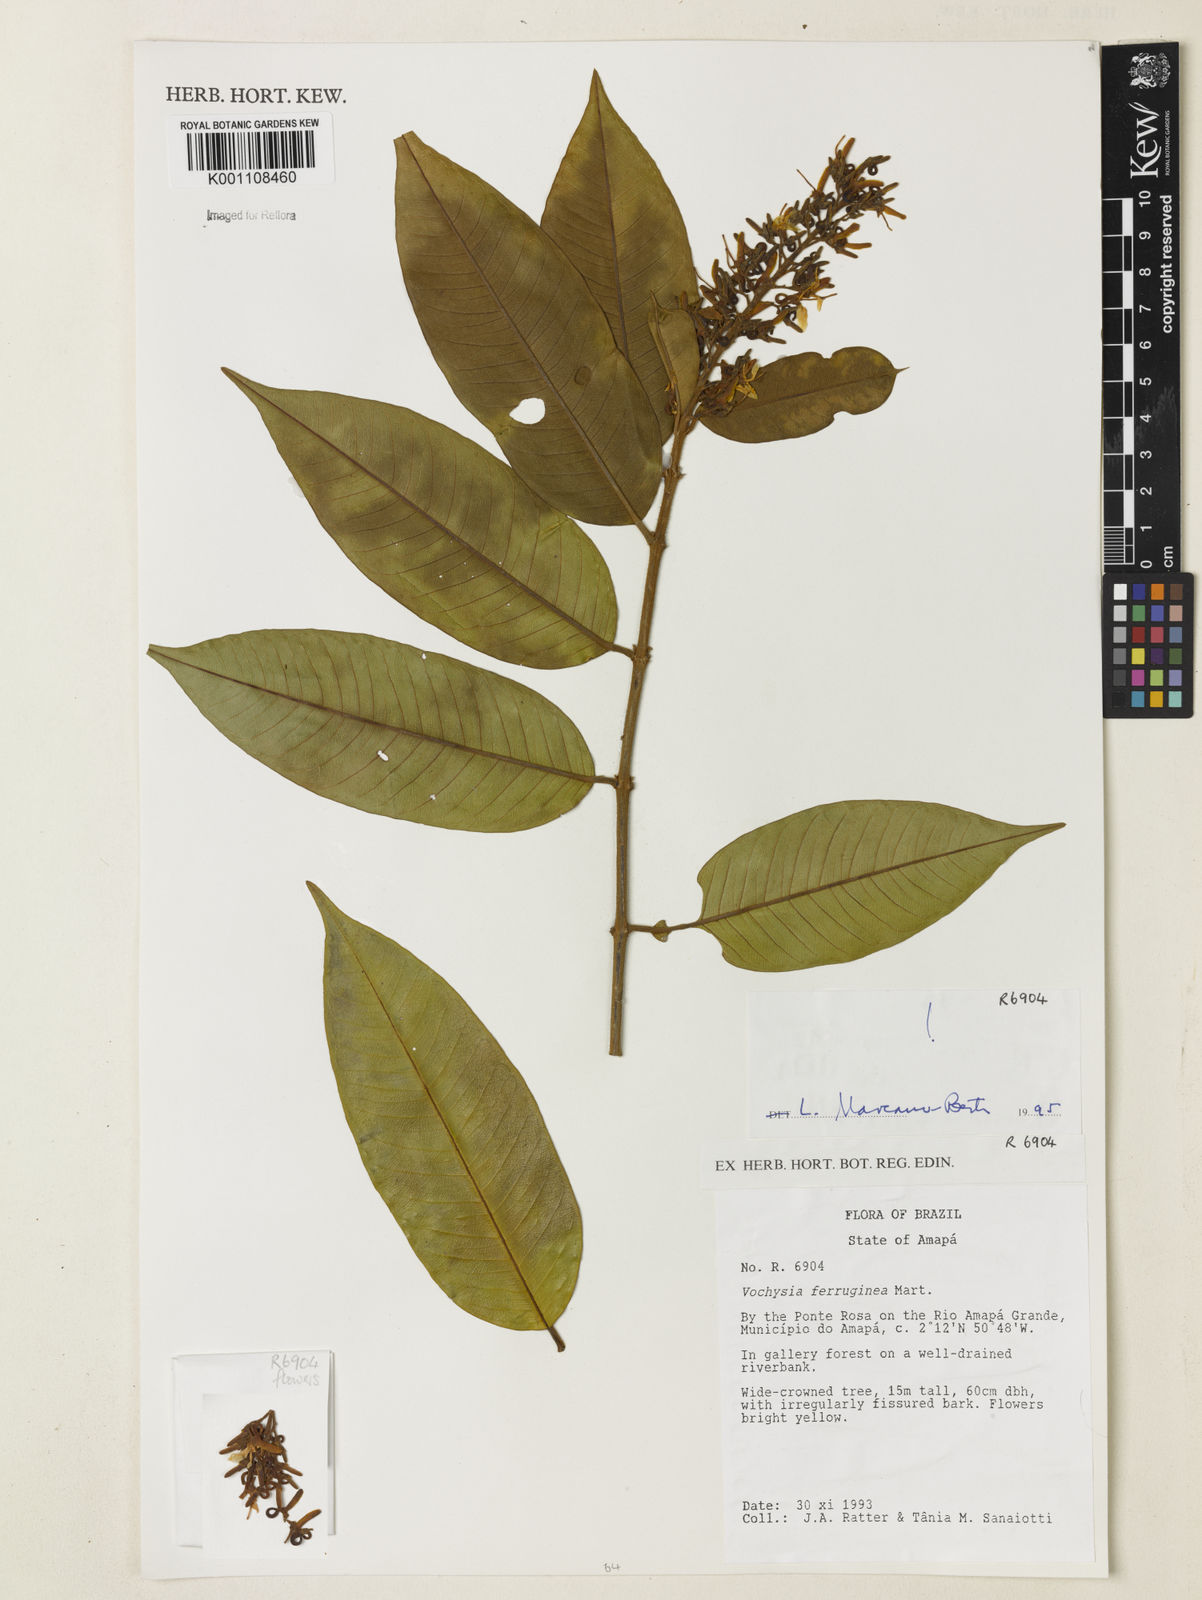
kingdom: Plantae
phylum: Tracheophyta
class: Magnoliopsida
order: Myrtales
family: Vochysiaceae
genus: Vochysia
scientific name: Vochysia ferruginea
